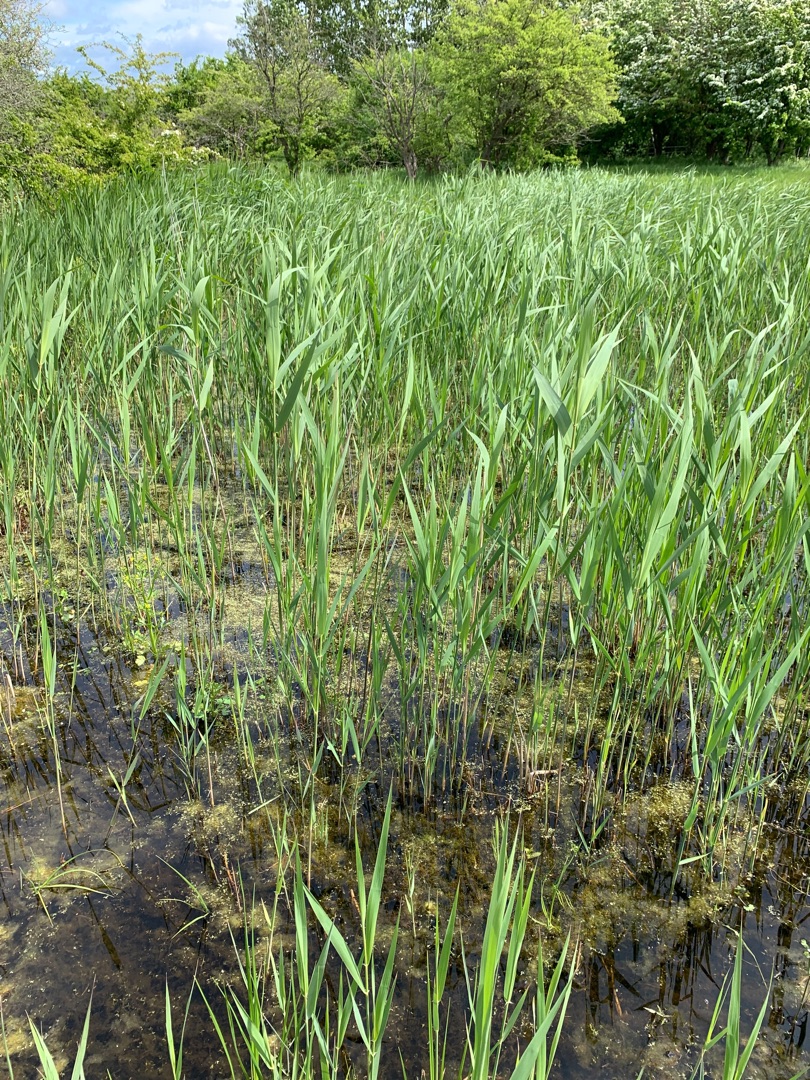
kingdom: Plantae
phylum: Tracheophyta
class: Liliopsida
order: Poales
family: Poaceae
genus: Phragmites
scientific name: Phragmites australis
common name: Tagrør
